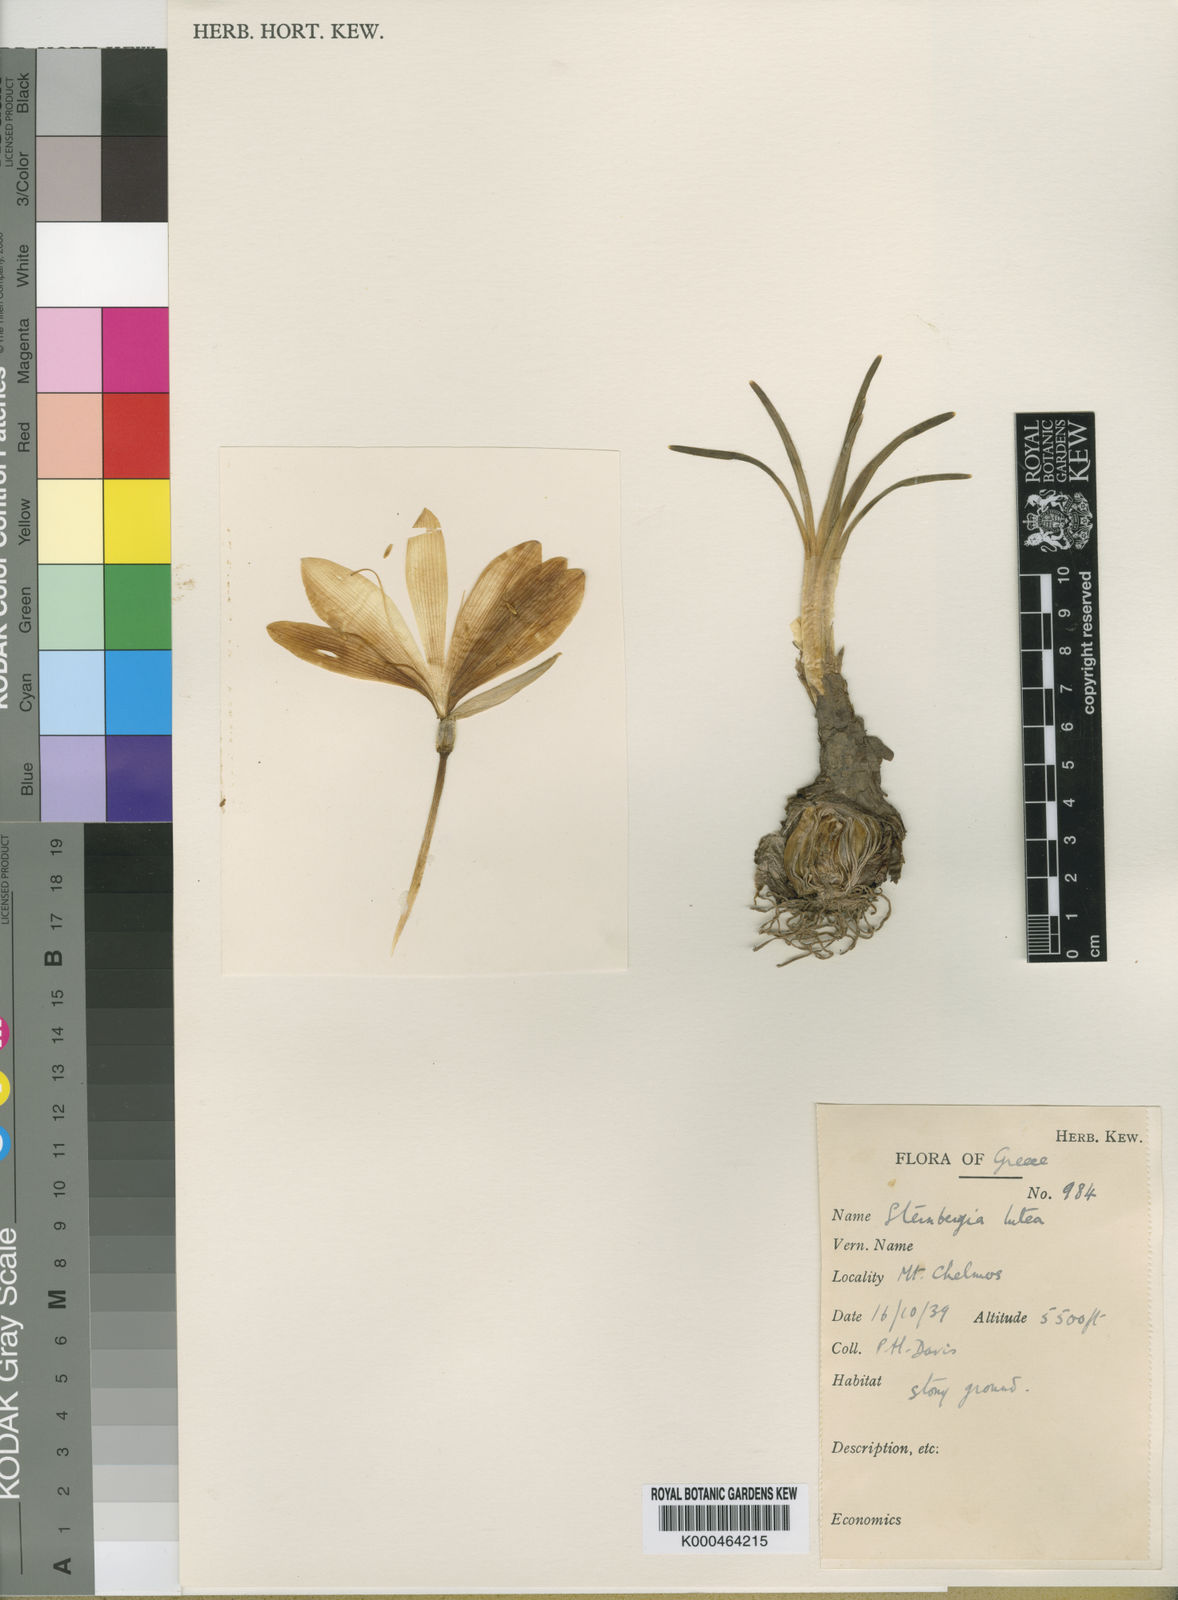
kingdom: Plantae
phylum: Tracheophyta
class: Liliopsida
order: Asparagales
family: Amaryllidaceae
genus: Sternbergia
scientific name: Sternbergia
